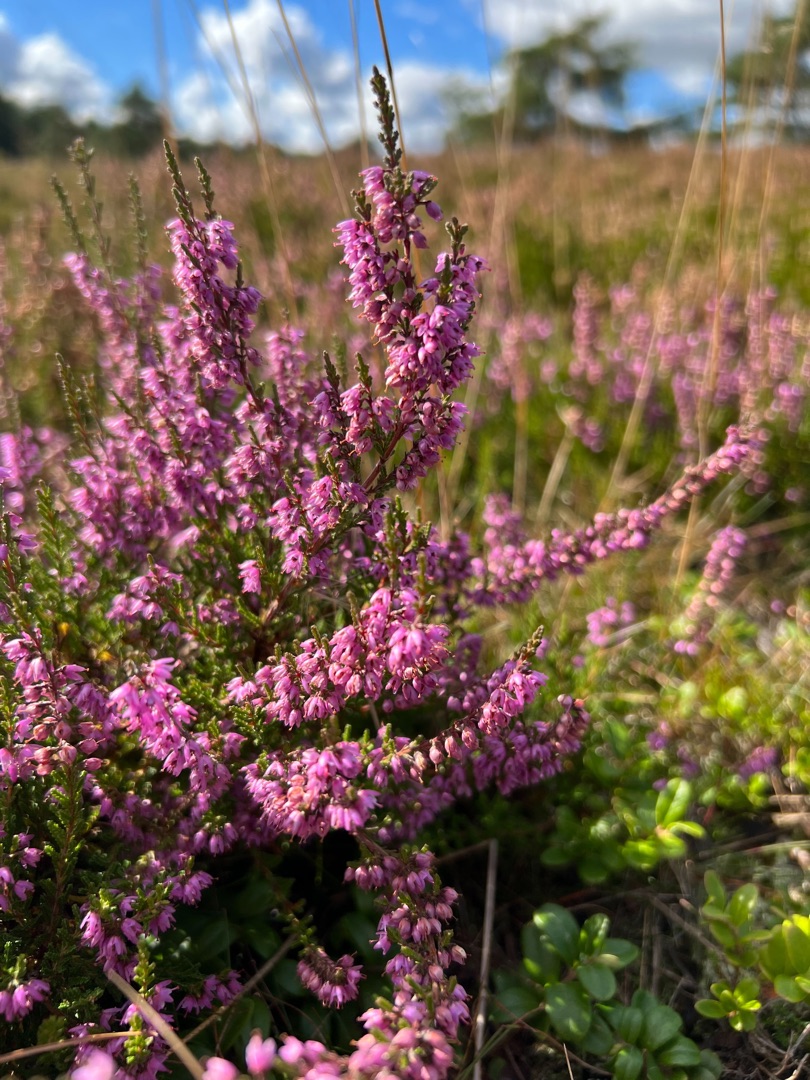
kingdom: Plantae
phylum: Tracheophyta
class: Magnoliopsida
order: Ericales
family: Ericaceae
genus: Calluna
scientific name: Calluna vulgaris
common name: Hedelyng
